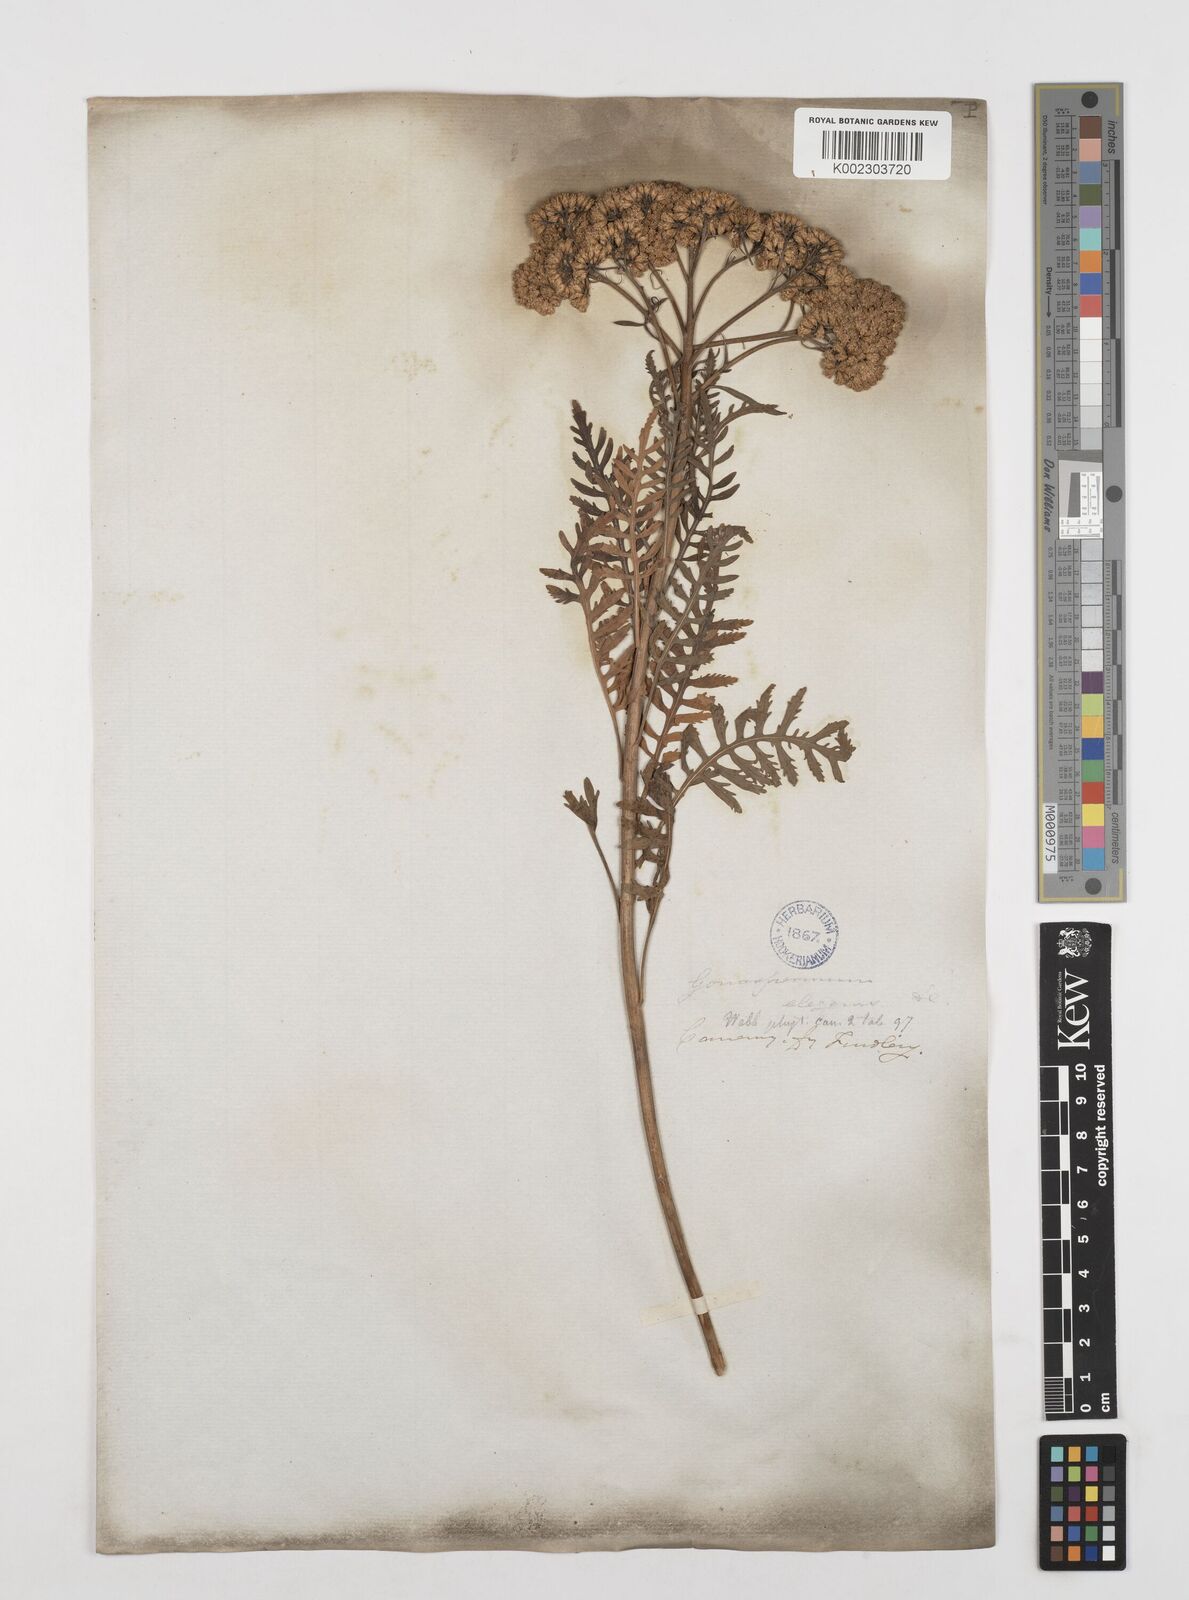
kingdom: Plantae
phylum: Tracheophyta
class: Magnoliopsida
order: Asterales
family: Asteraceae
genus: Gonospermum
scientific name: Gonospermum canariense
